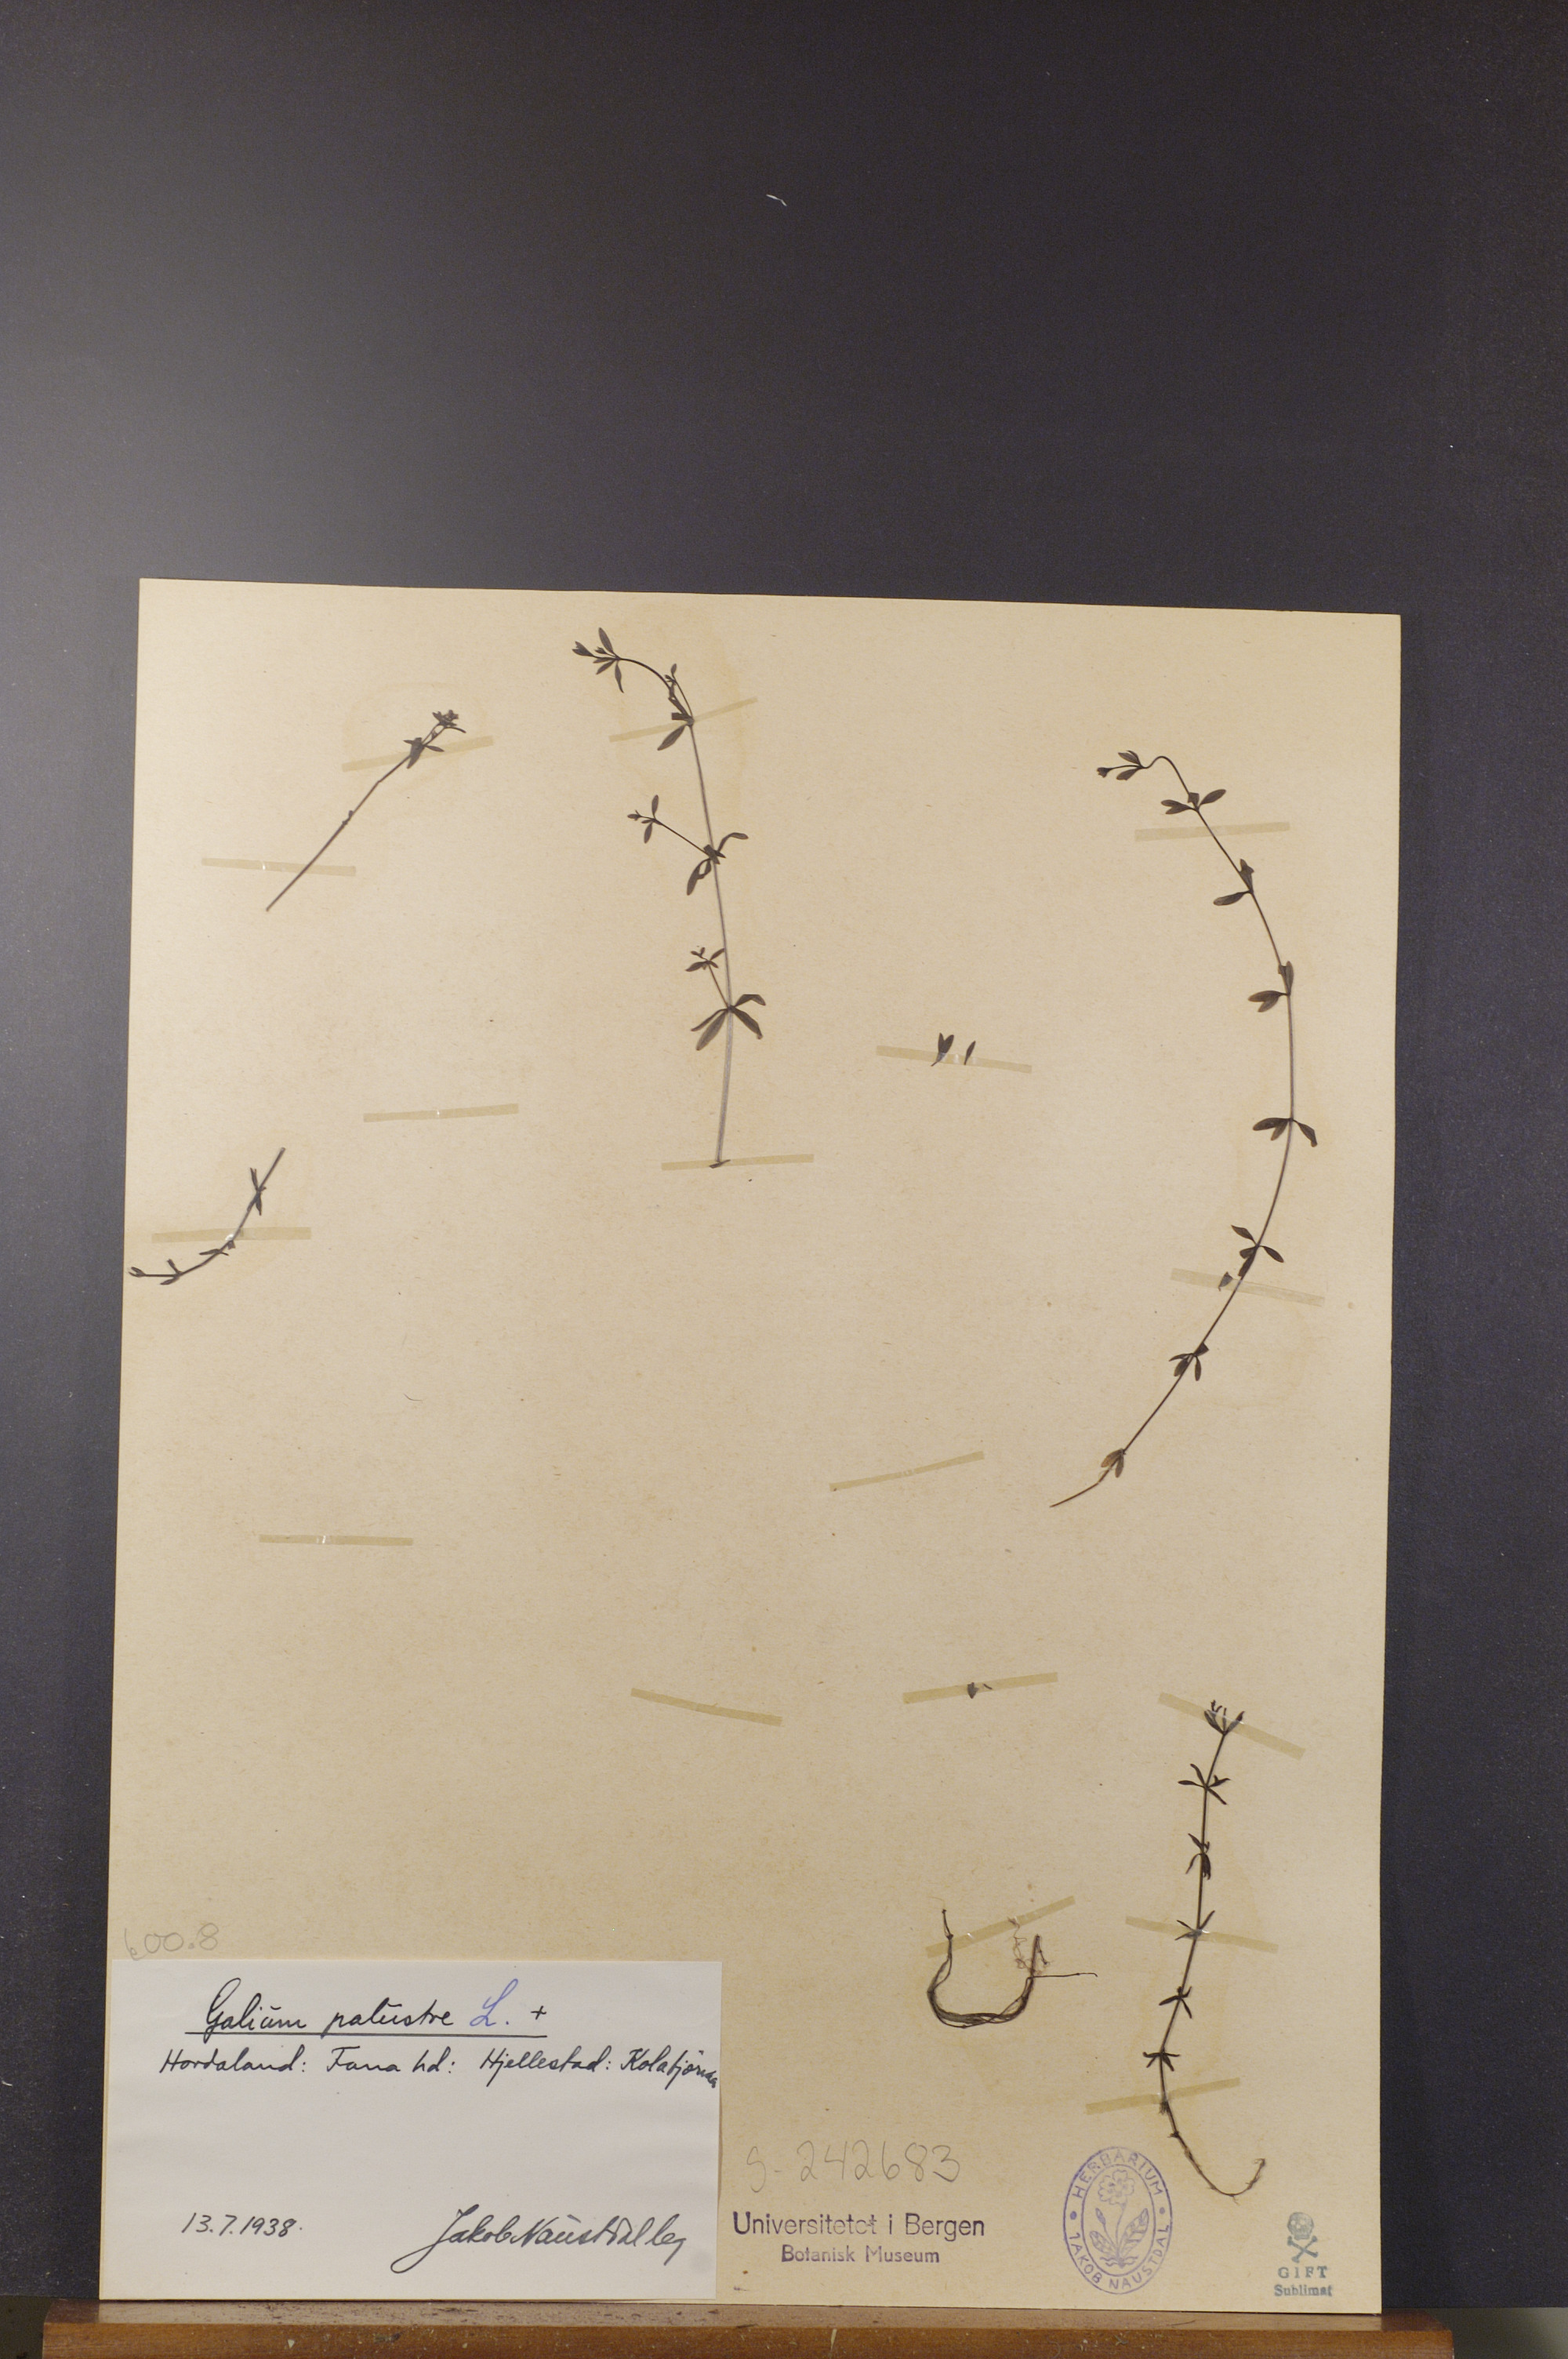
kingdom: Plantae
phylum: Tracheophyta
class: Magnoliopsida
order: Gentianales
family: Rubiaceae
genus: Galium
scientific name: Galium palustre
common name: Common marsh-bedstraw
